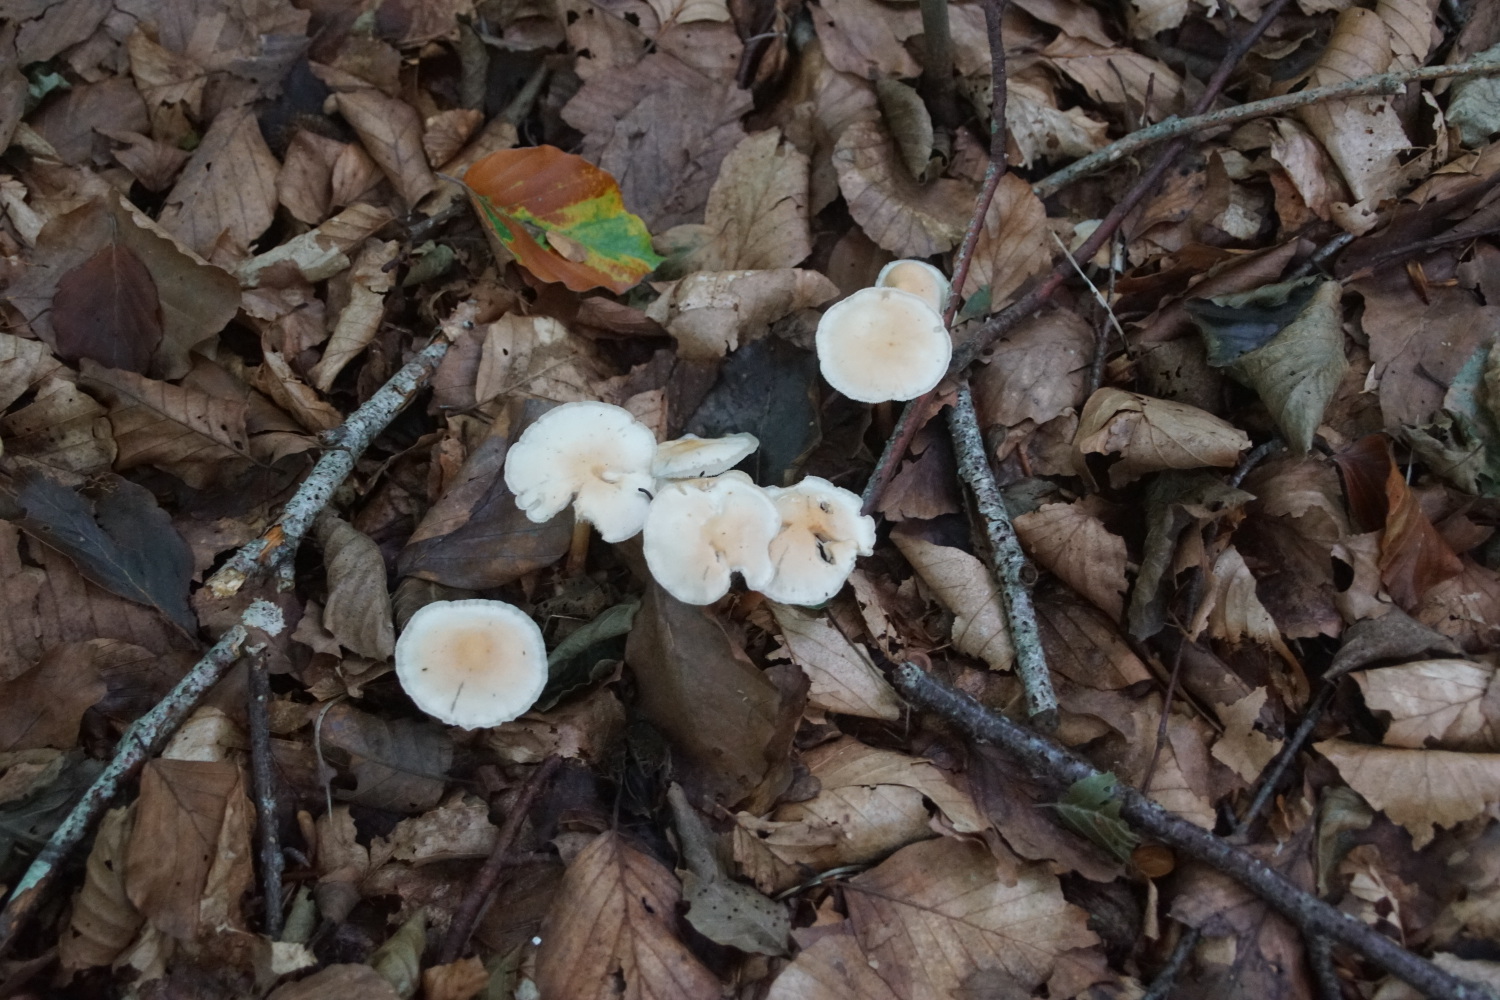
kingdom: Fungi
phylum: Basidiomycota
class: Agaricomycetes
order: Agaricales
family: Omphalotaceae
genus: Gymnopus
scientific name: Gymnopus dryophilus
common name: løv-fladhat
